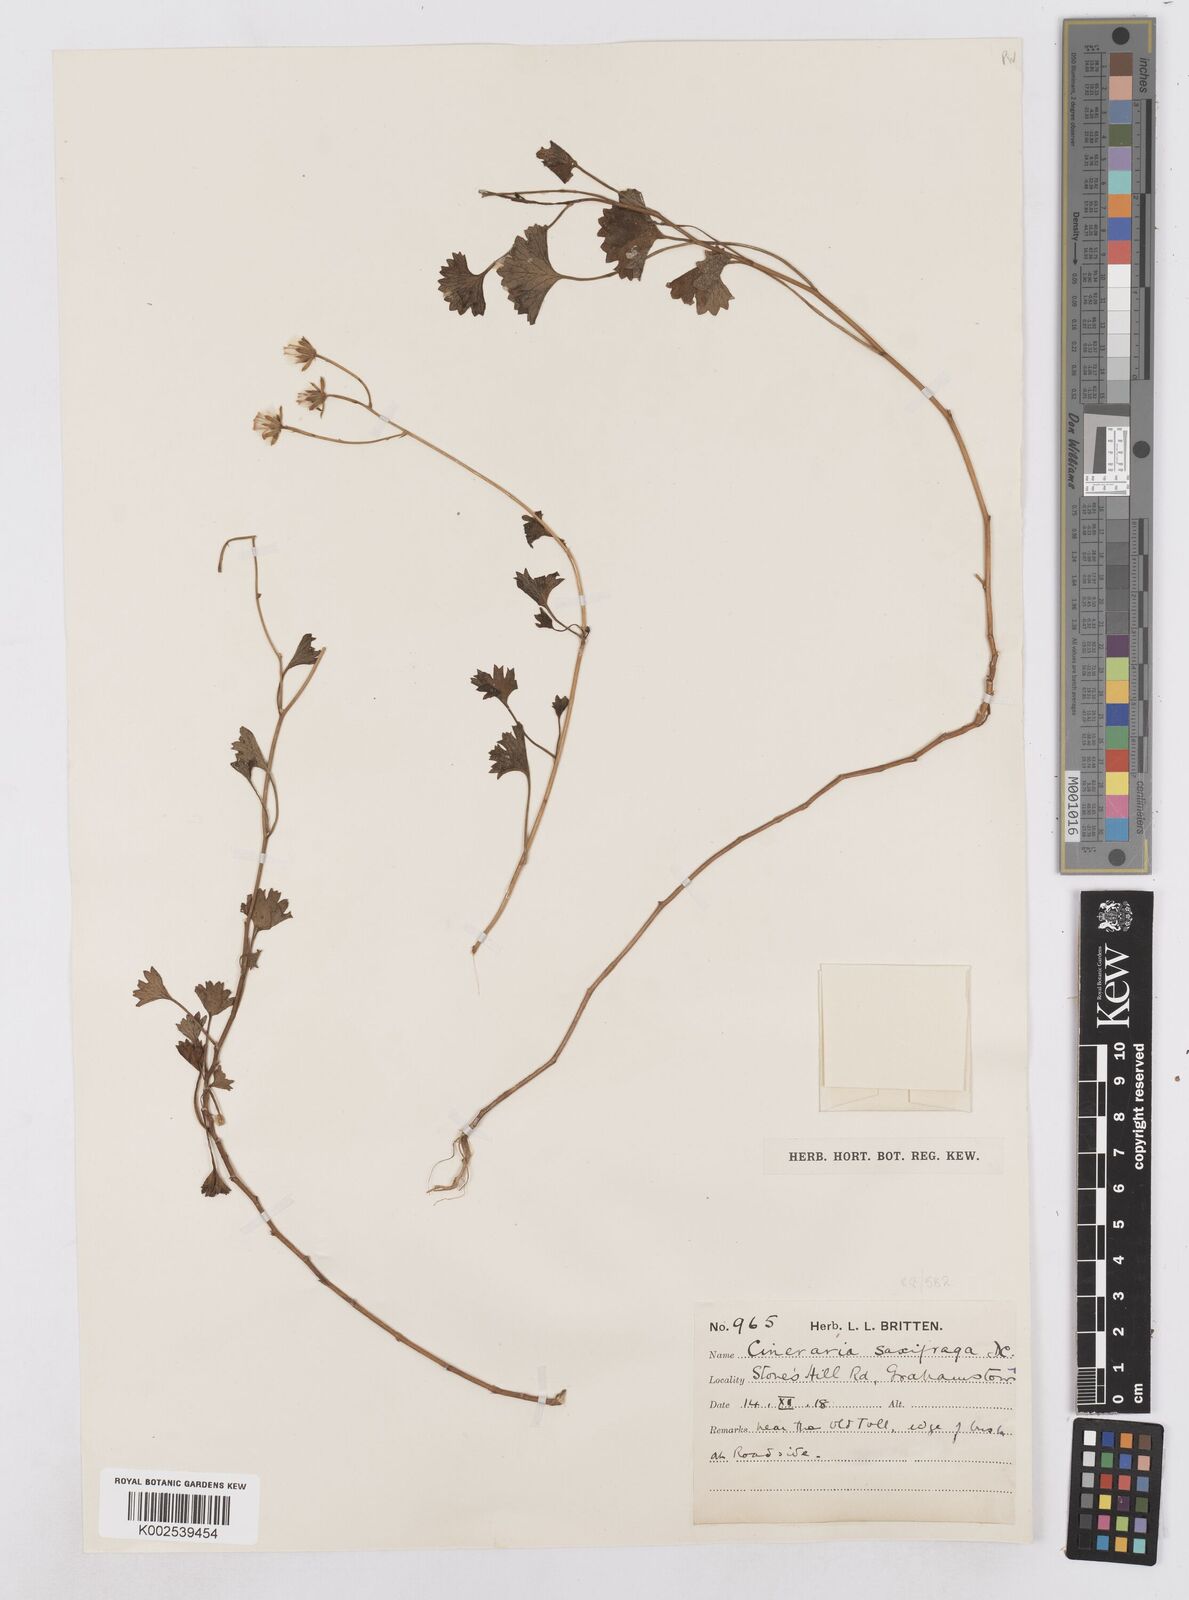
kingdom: Plantae
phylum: Tracheophyta
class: Magnoliopsida
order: Asterales
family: Asteraceae
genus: Cineraria
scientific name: Cineraria saxifraga
